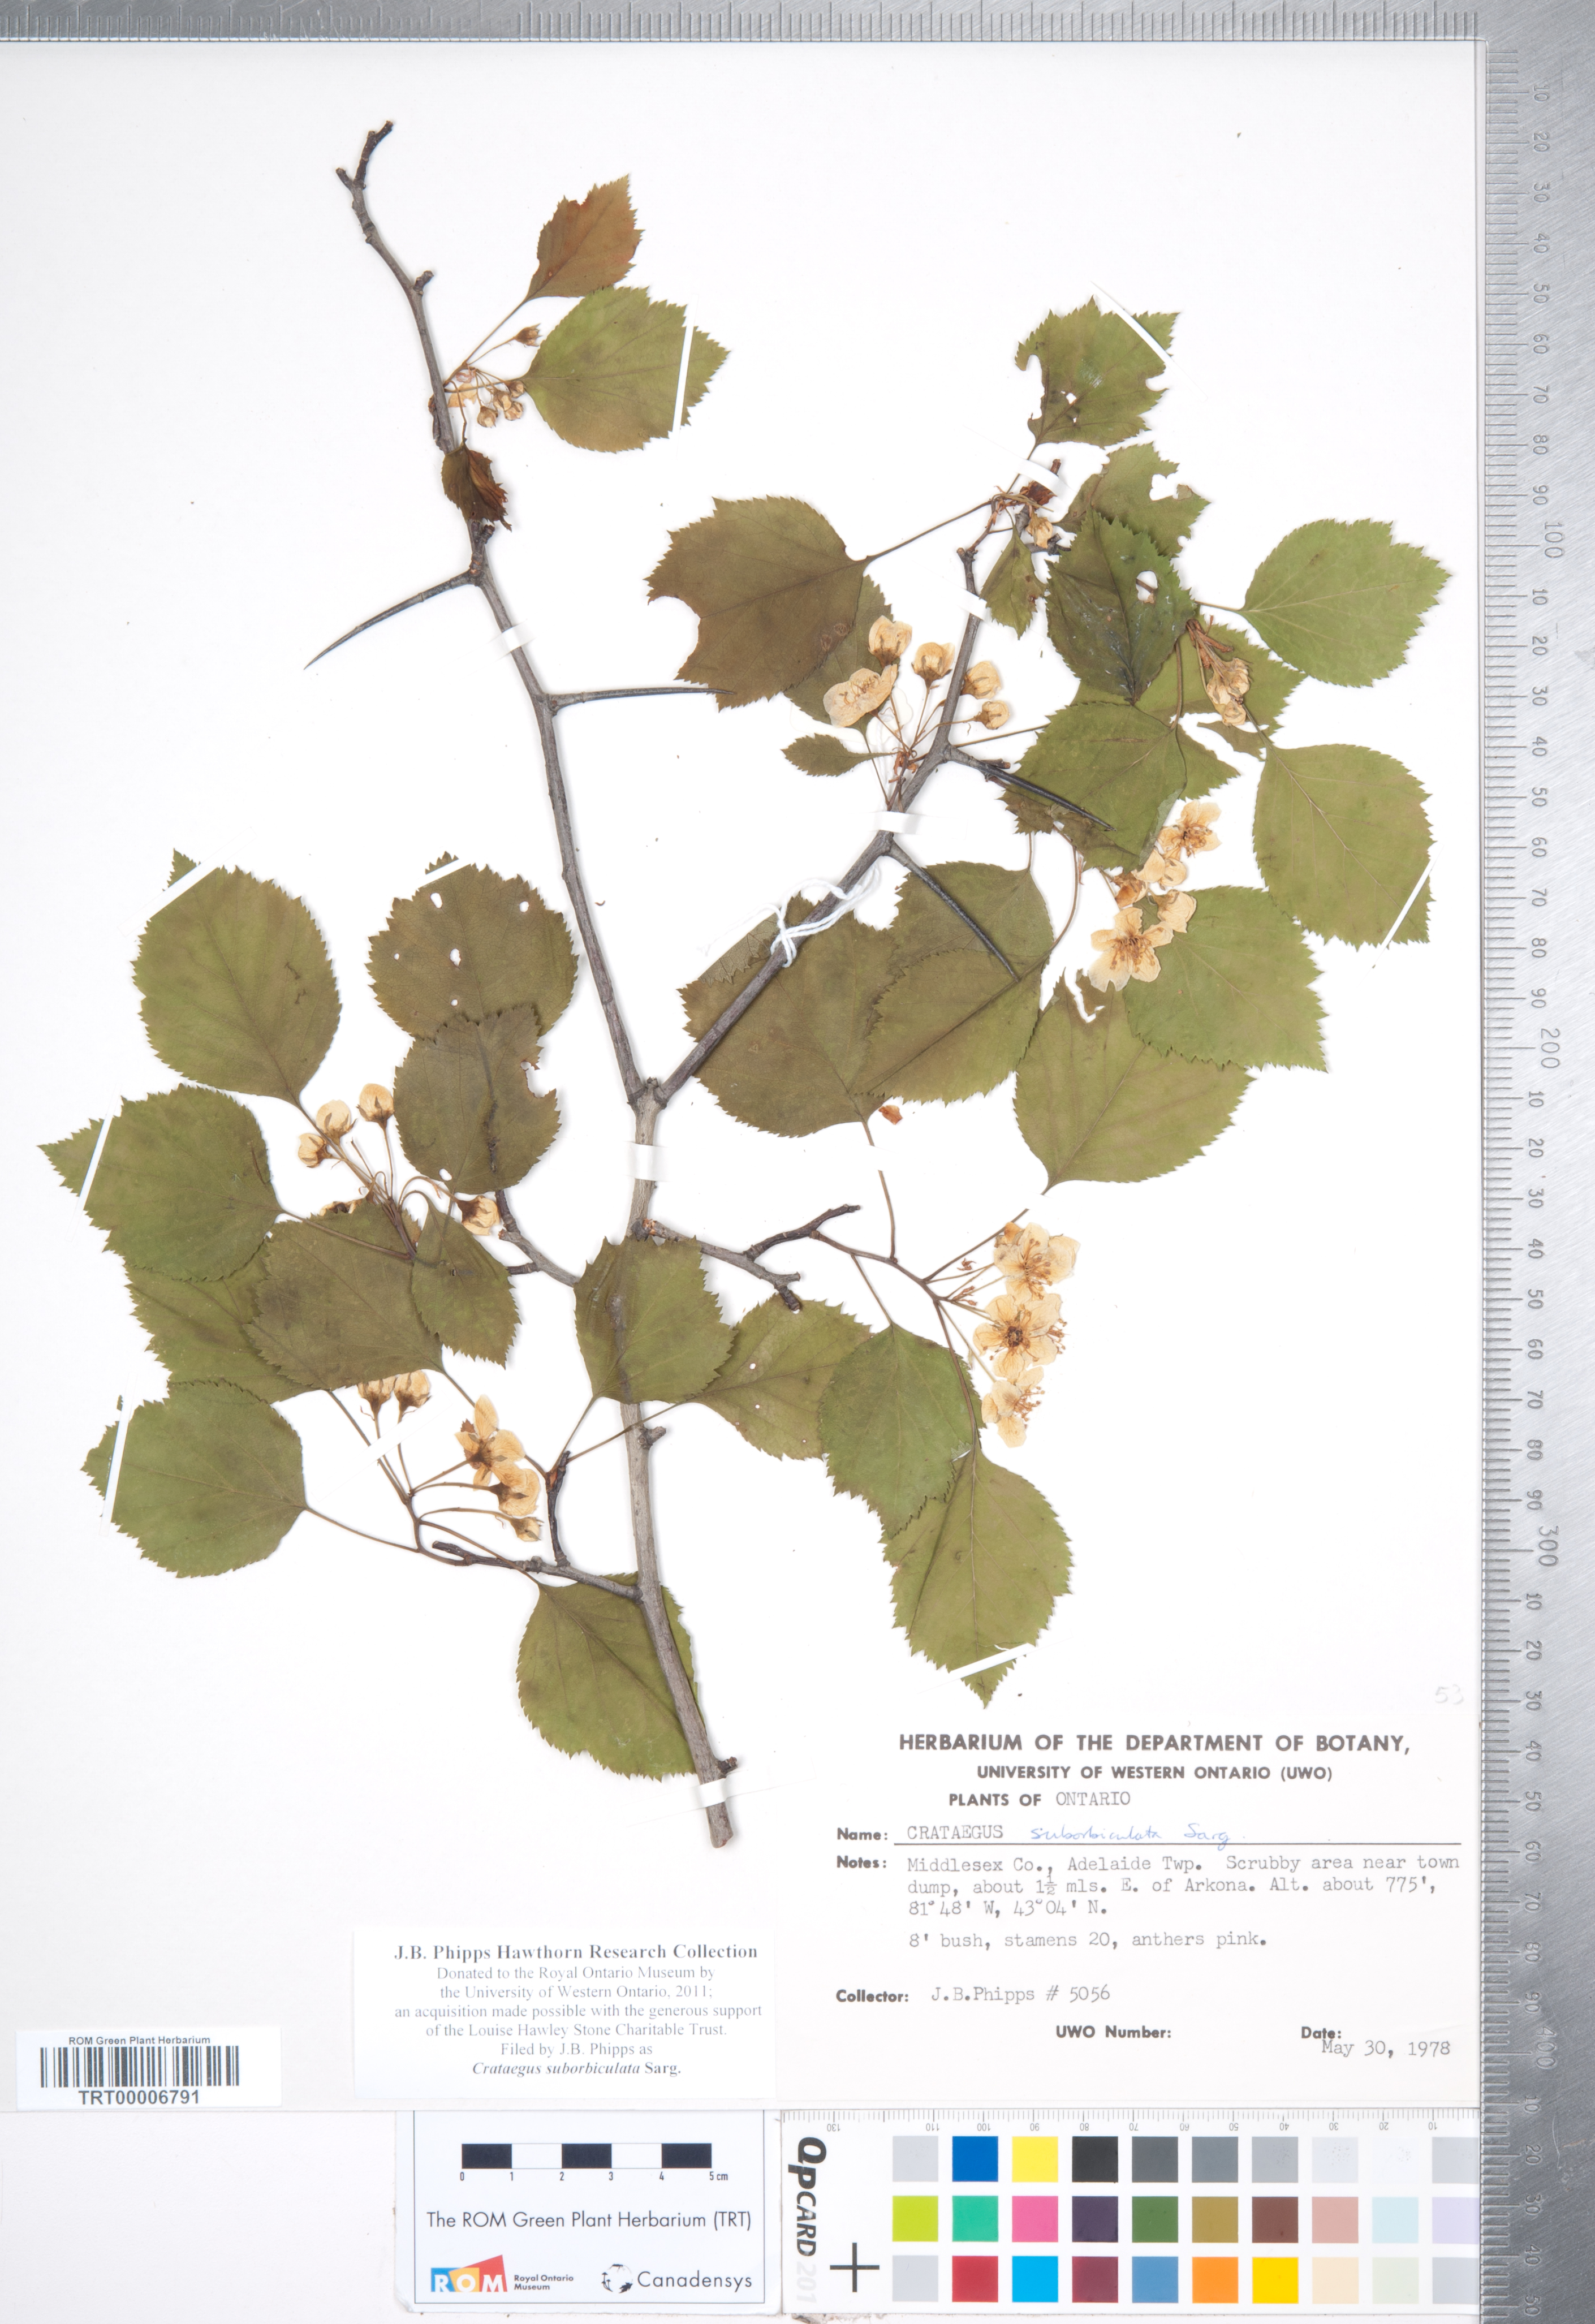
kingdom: Plantae
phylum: Tracheophyta
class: Magnoliopsida
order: Rosales
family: Rosaceae
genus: Crataegus
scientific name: Crataegus suborbiculata
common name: Caughnawaga hawthorn
